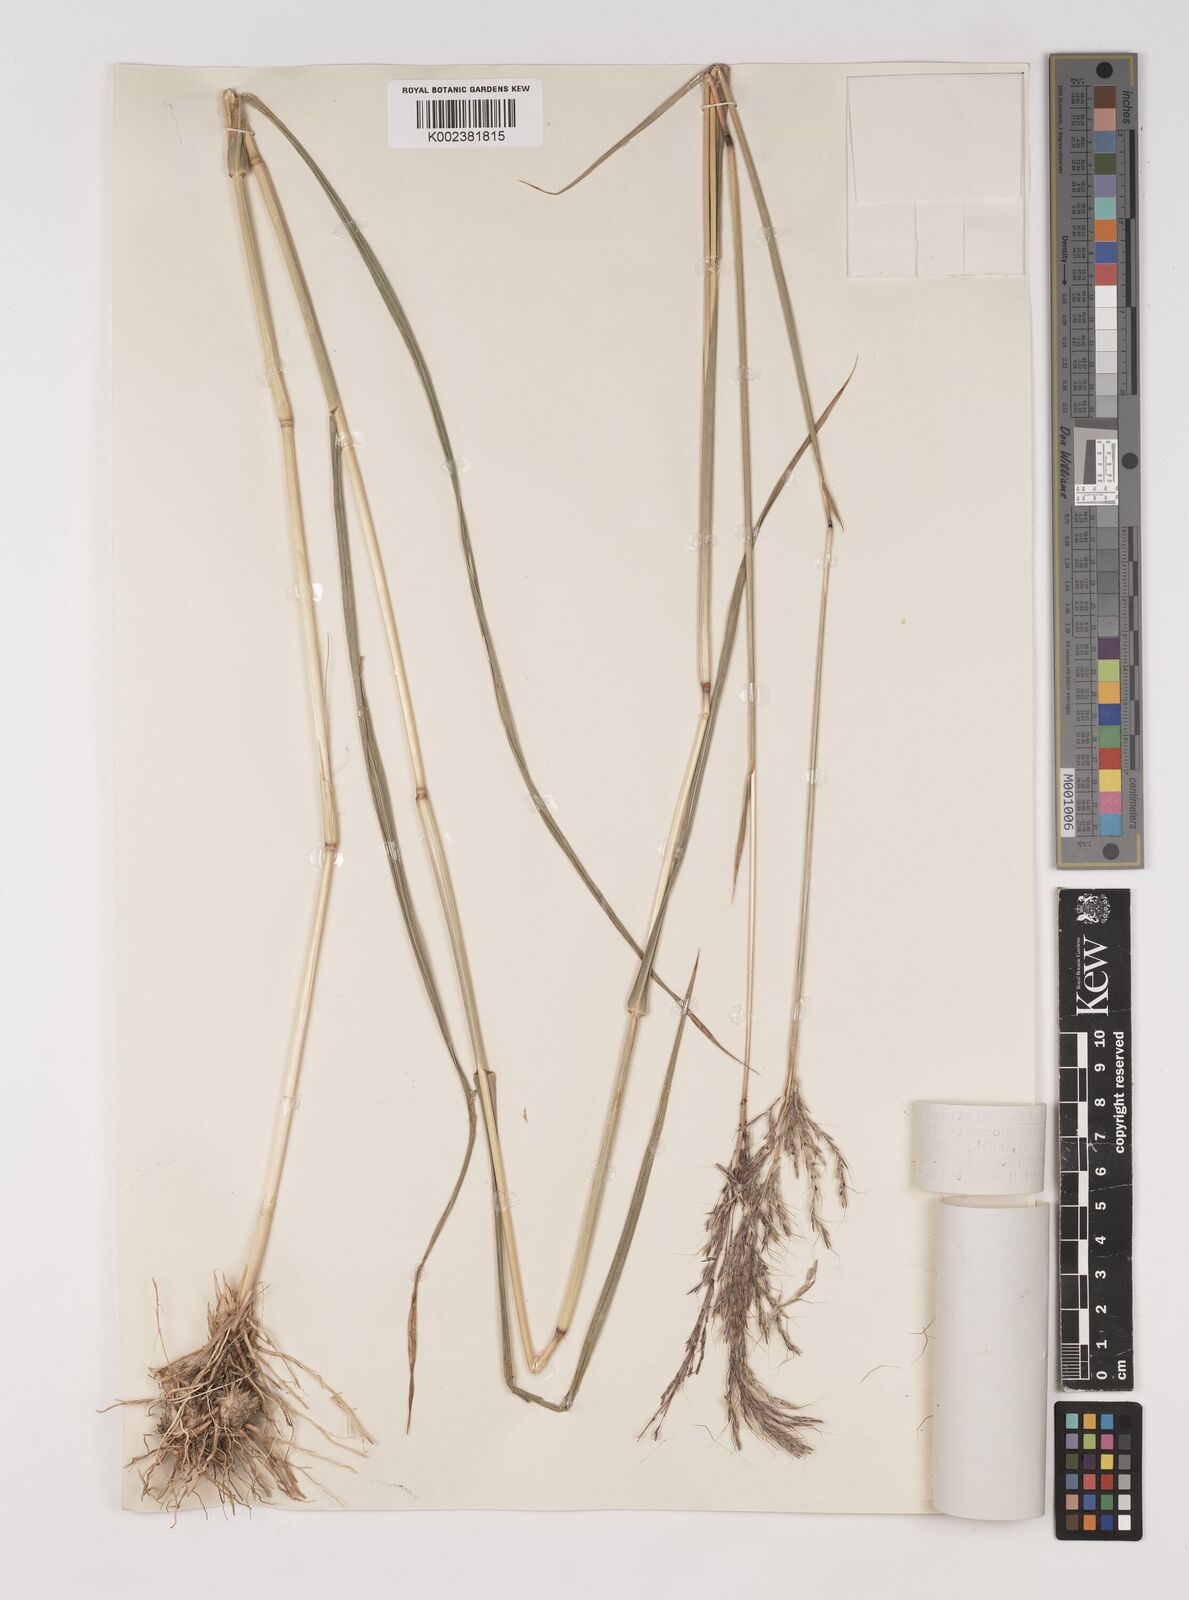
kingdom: Plantae
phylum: Tracheophyta
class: Liliopsida
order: Poales
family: Poaceae
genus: Bothriochloa
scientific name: Bothriochloa bladhii
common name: Caucasian bluestem
